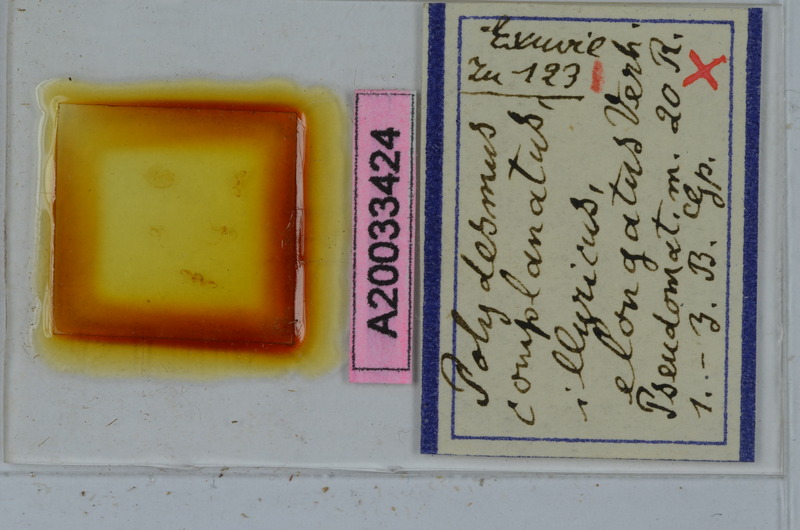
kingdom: Animalia
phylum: Arthropoda
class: Diplopoda
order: Polydesmida
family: Polydesmidae
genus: Polydesmus
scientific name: Polydesmus complanatus
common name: Flat-backed millipede
